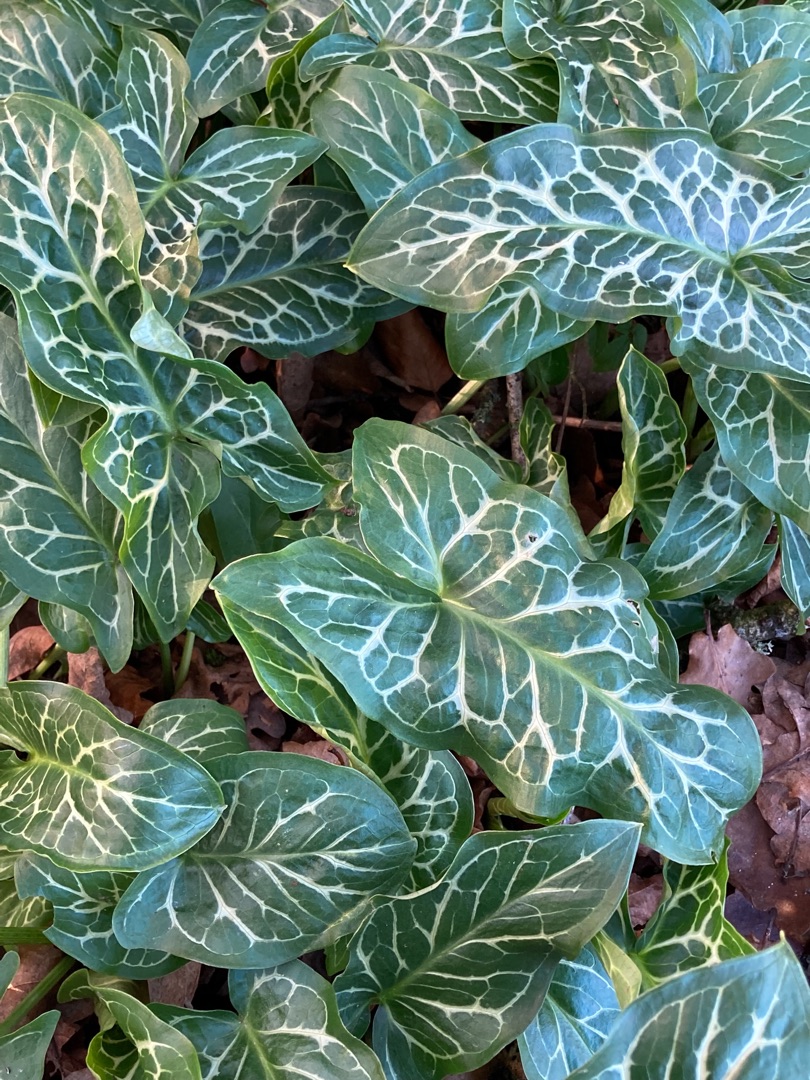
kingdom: Plantae
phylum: Tracheophyta
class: Liliopsida
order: Alismatales
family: Araceae
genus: Arum
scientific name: Arum italicum
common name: Italiensk arum
